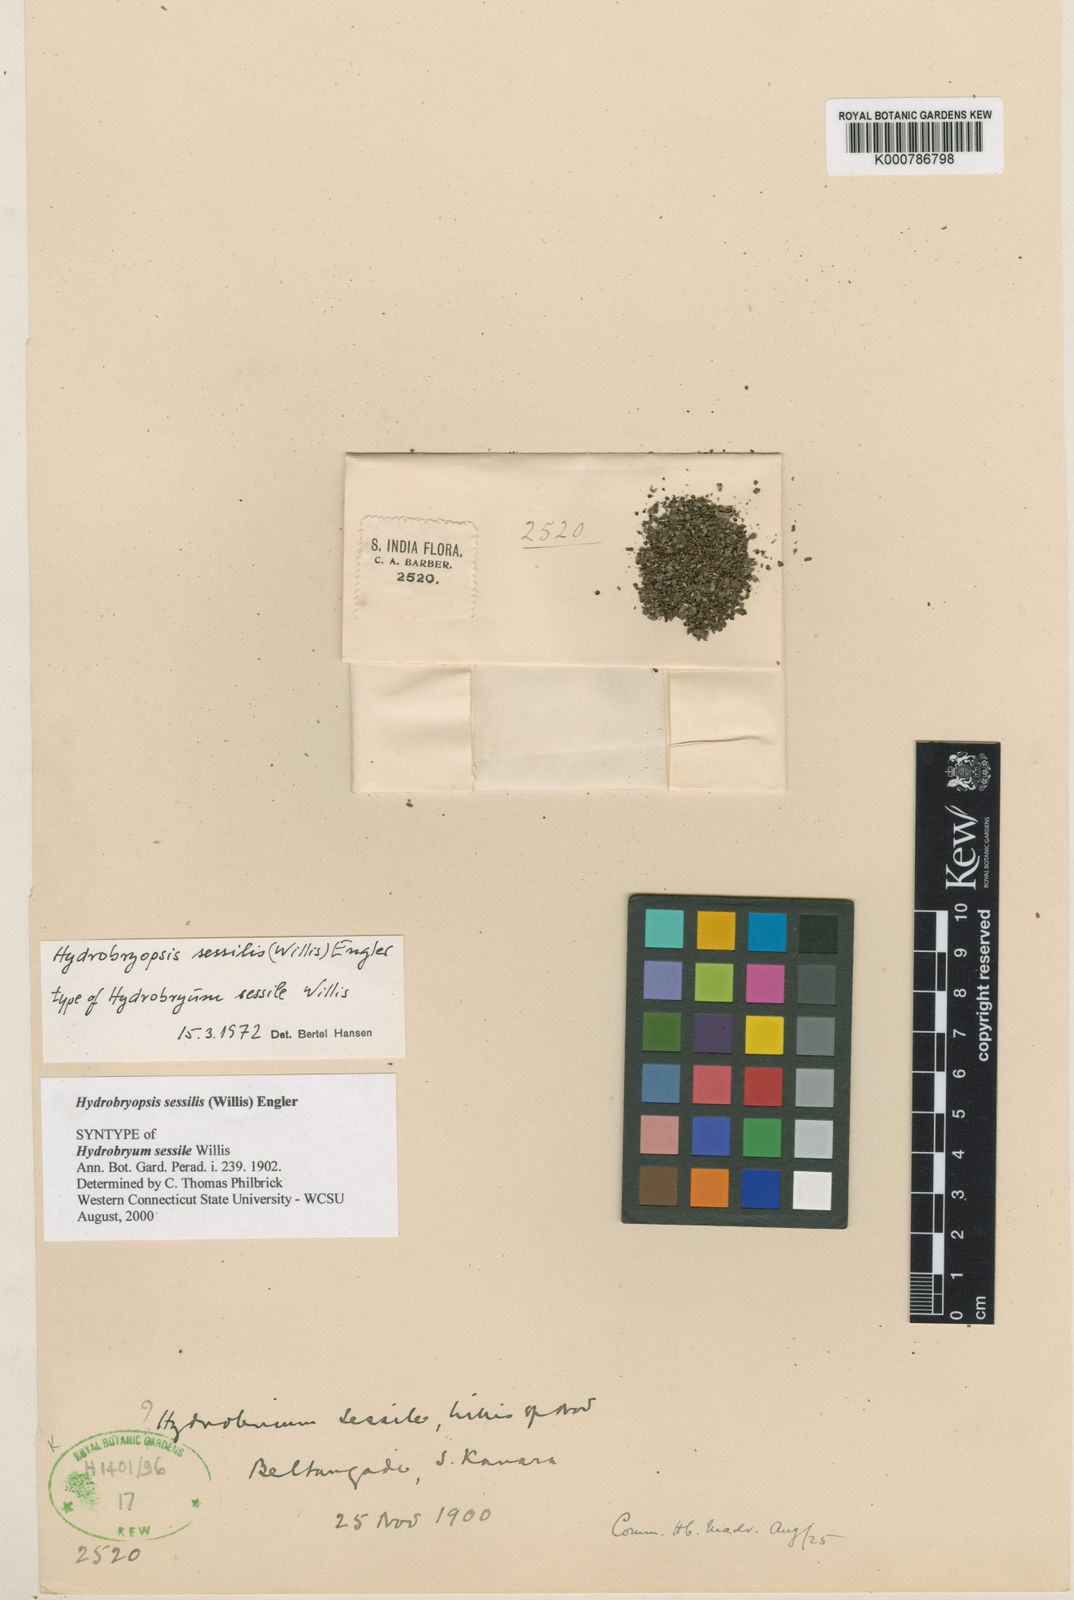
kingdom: Plantae
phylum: Tracheophyta
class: Magnoliopsida
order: Malpighiales
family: Podostemaceae
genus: Zeylanidium
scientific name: Zeylanidium sessile
